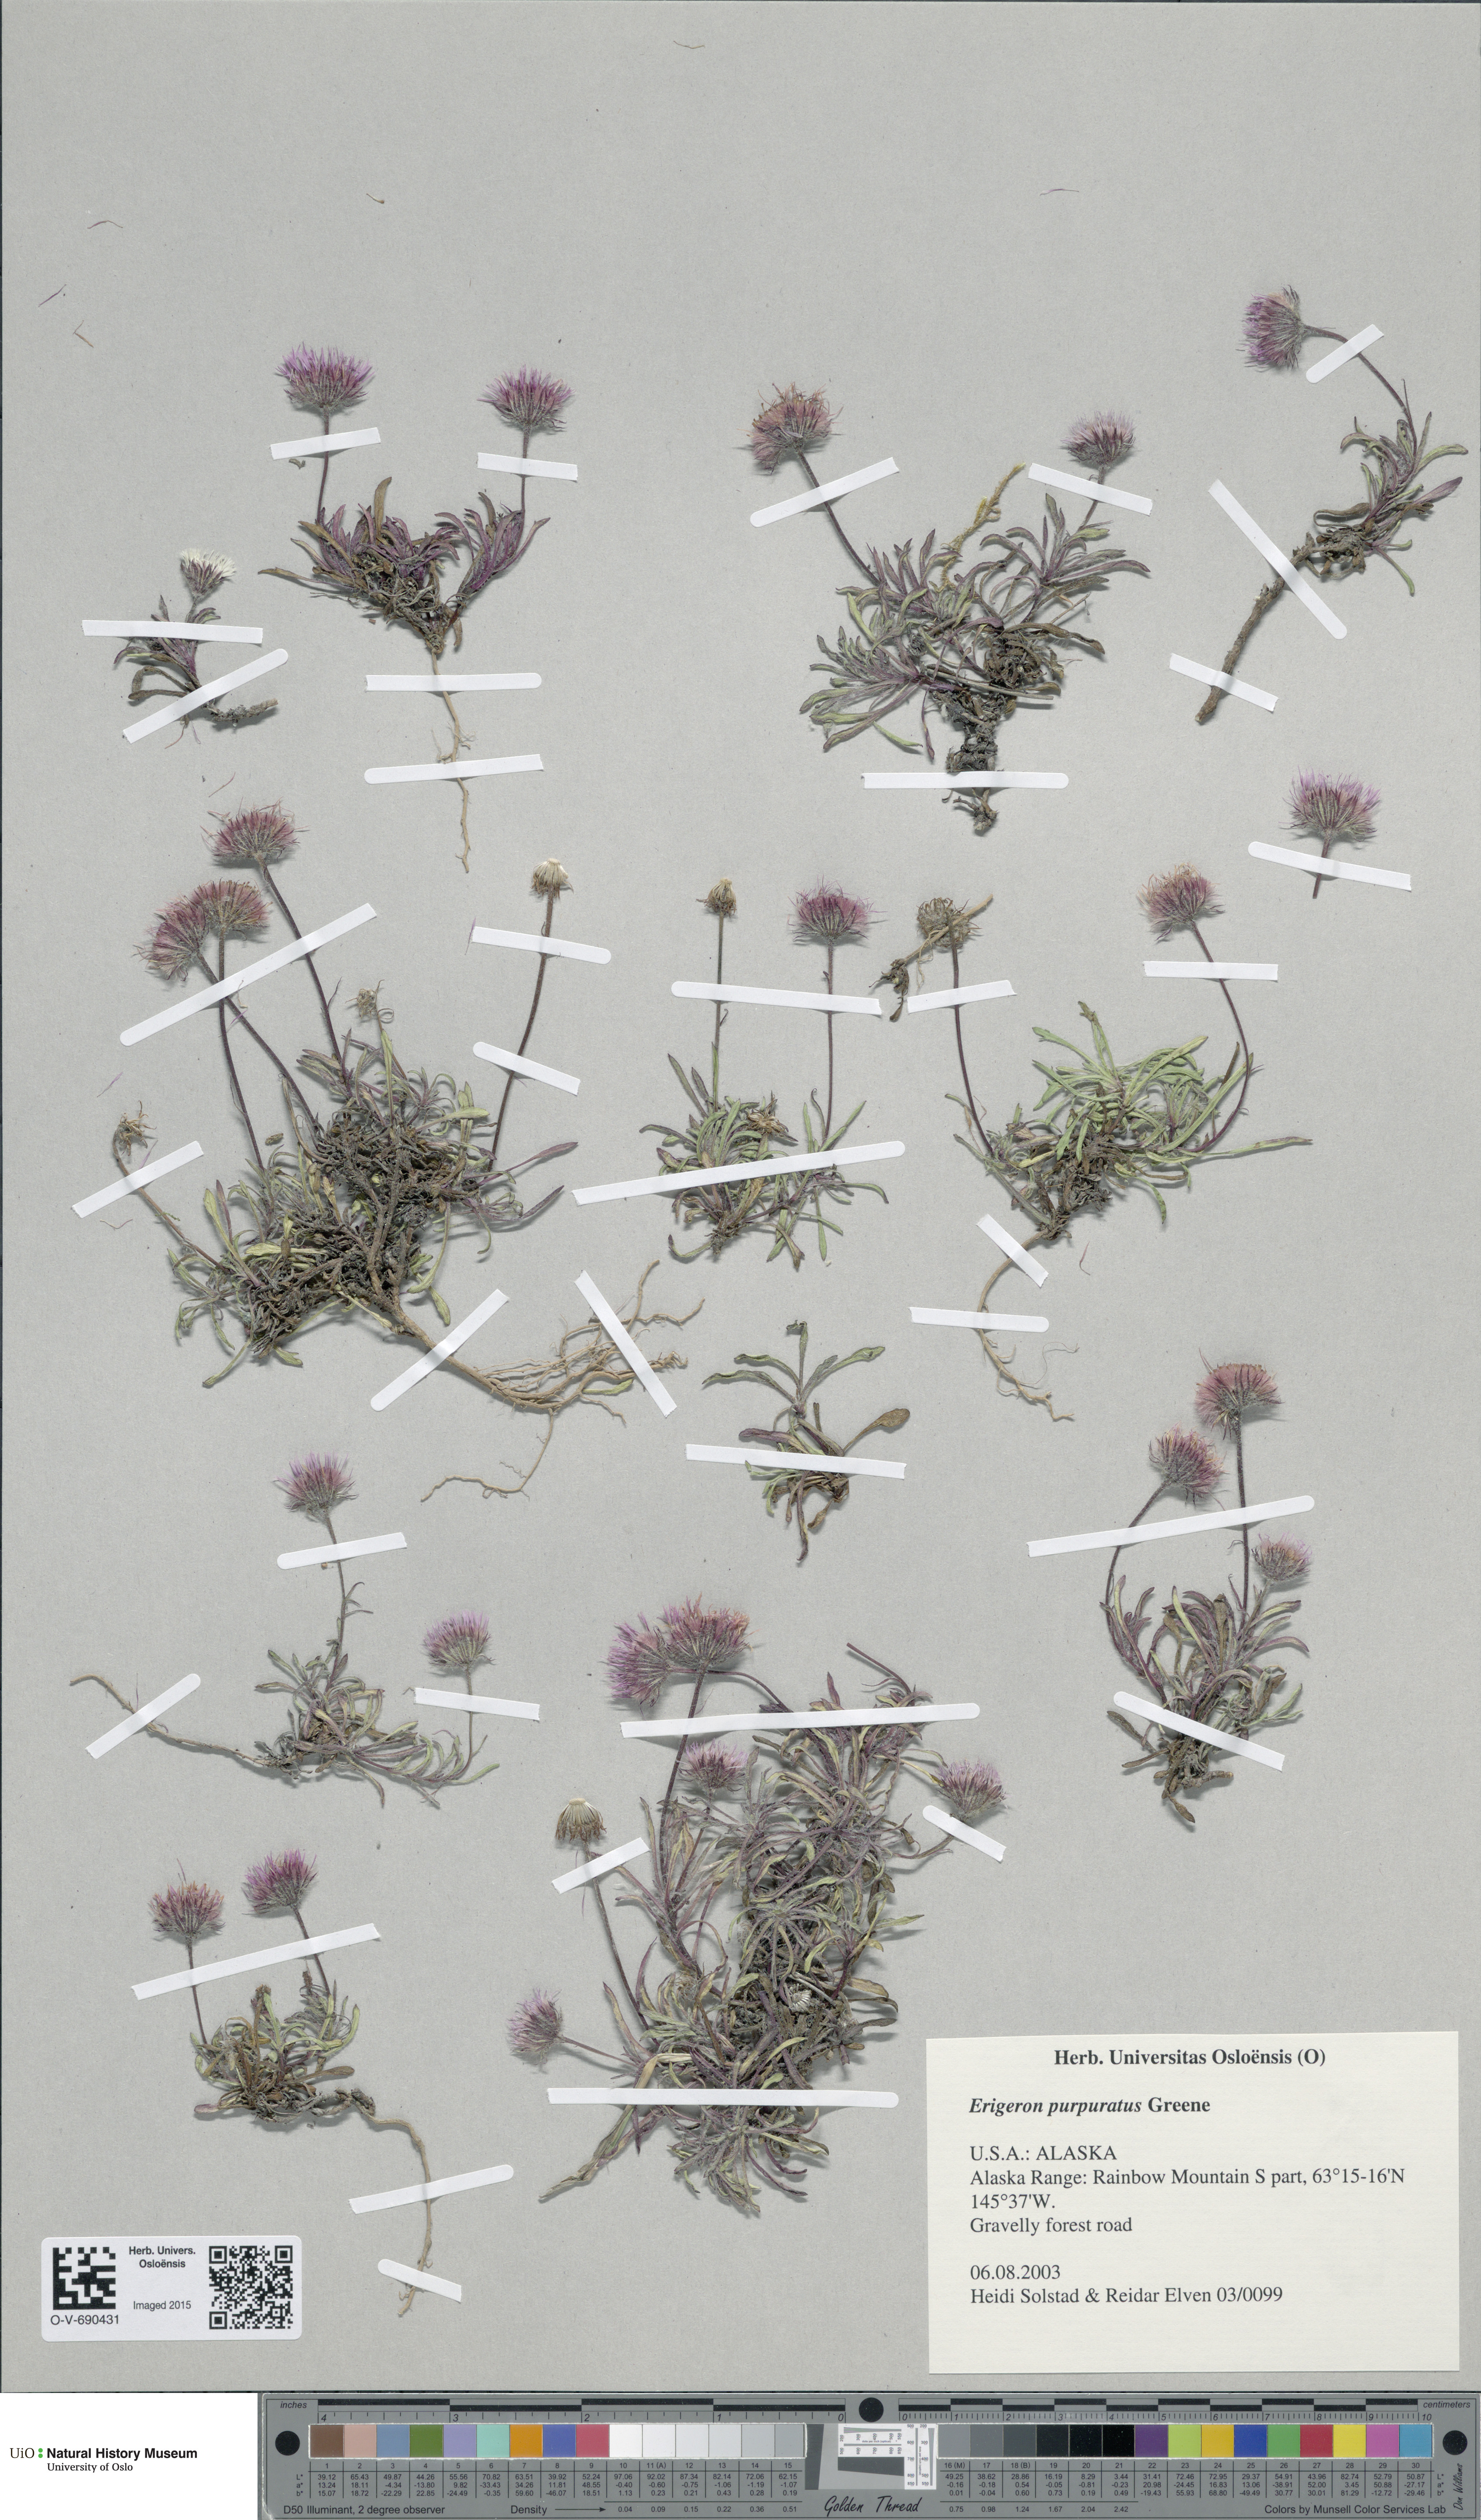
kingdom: Plantae
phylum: Tracheophyta
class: Magnoliopsida
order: Asterales
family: Asteraceae
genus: Erigeron
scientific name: Erigeron purpuratus
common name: Purple fleabane
